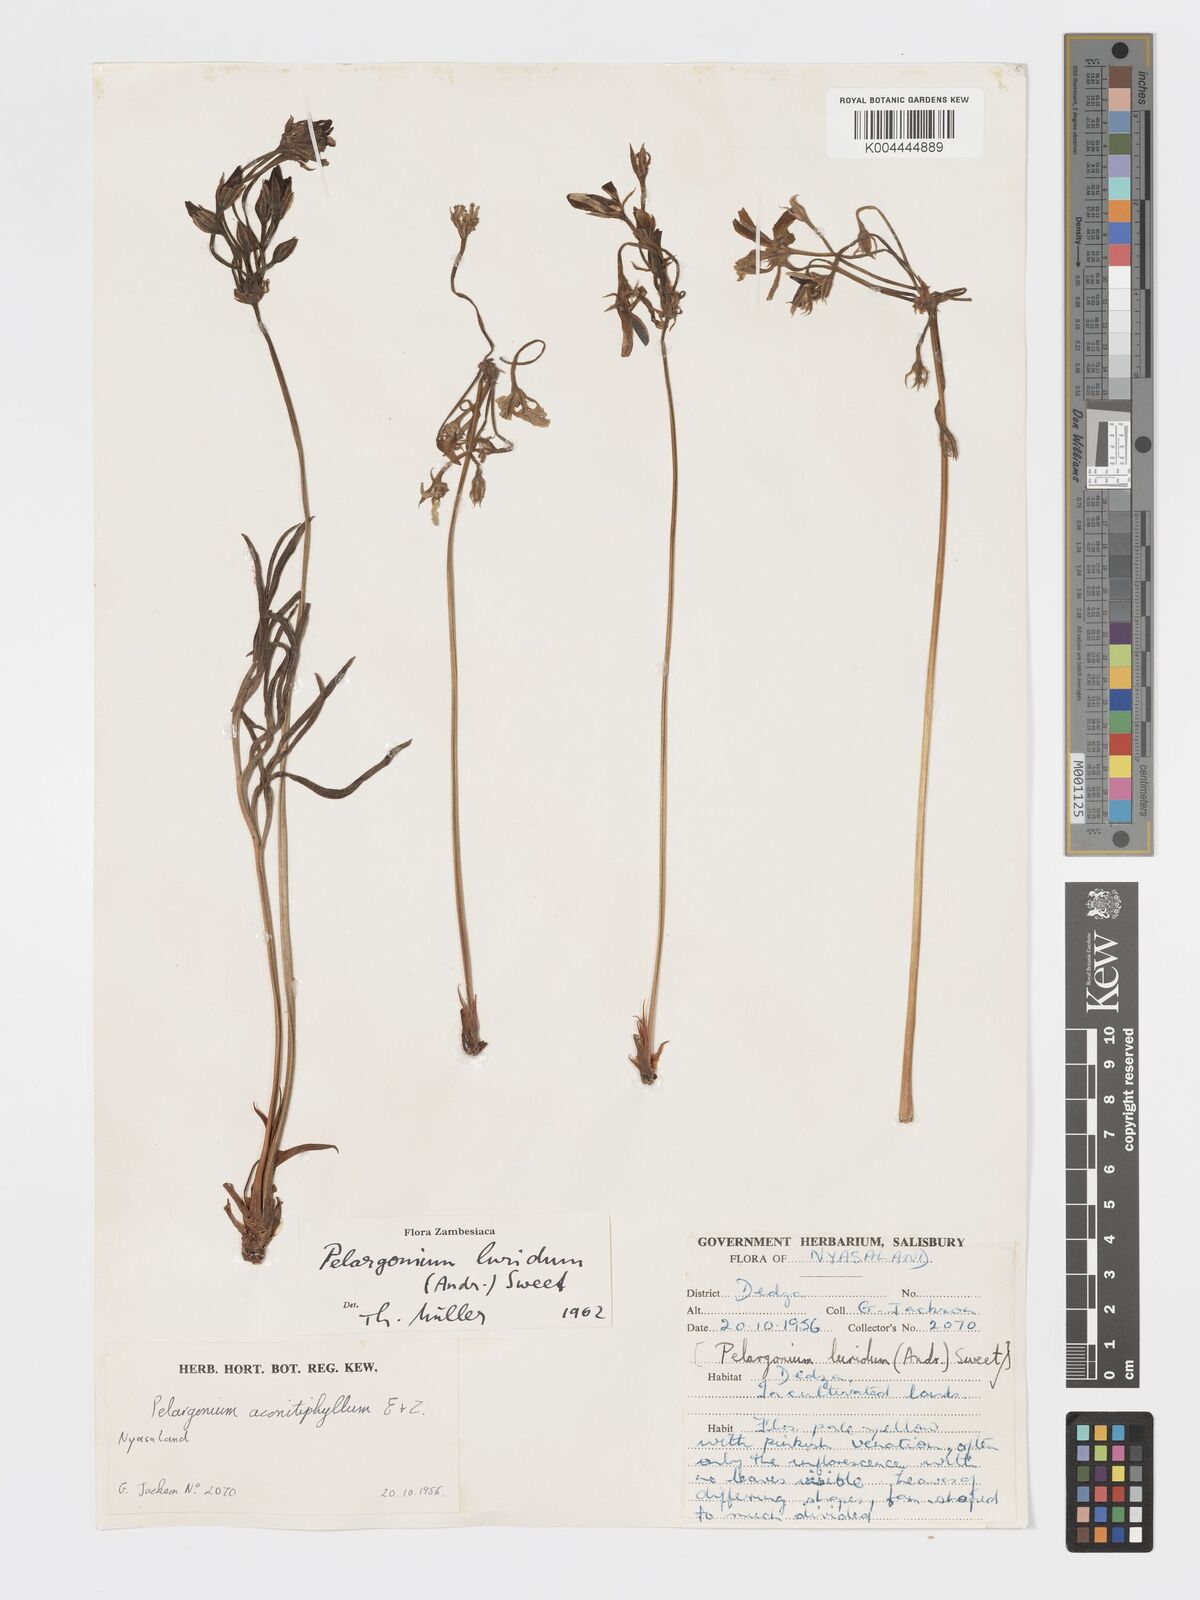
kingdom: Plantae
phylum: Tracheophyta
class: Magnoliopsida
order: Geraniales
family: Geraniaceae
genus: Pelargonium
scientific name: Pelargonium luridum
